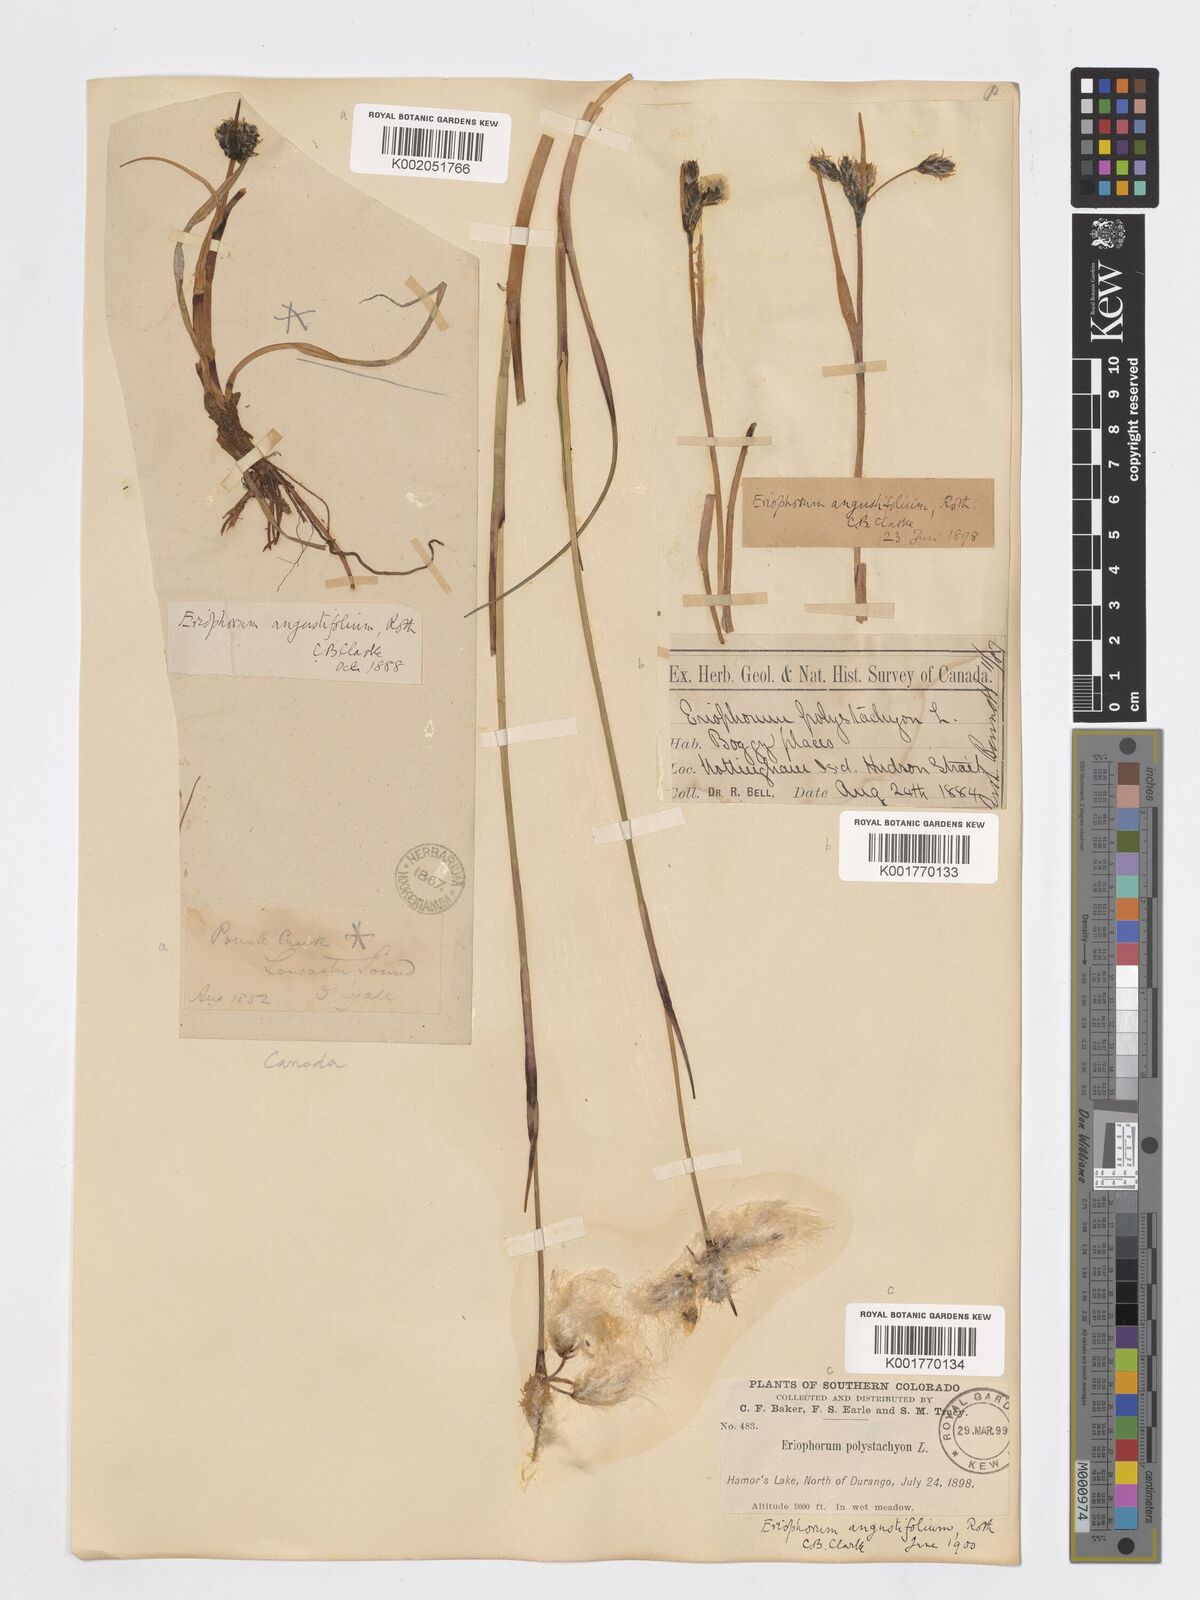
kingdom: Plantae
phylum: Tracheophyta
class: Liliopsida
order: Poales
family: Cyperaceae
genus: Eriophorum
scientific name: Eriophorum angustifolium
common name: Common cottongrass
